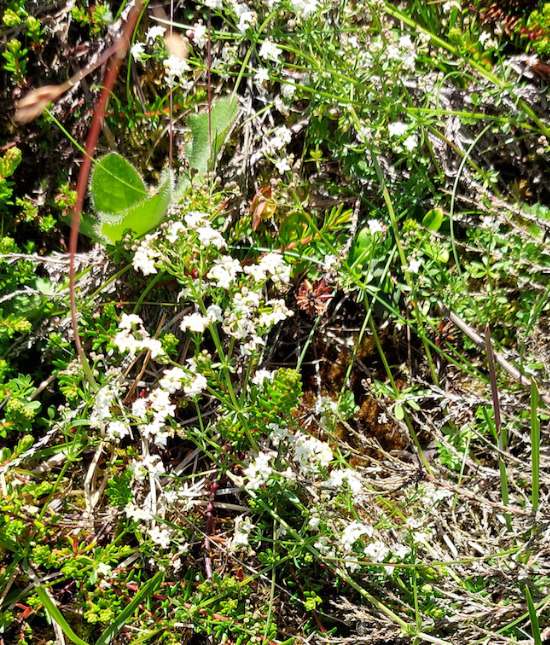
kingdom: Plantae
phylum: Tracheophyta
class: Magnoliopsida
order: Gentianales
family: Rubiaceae
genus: Galium
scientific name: Galium palustre
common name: Kær-snerre
